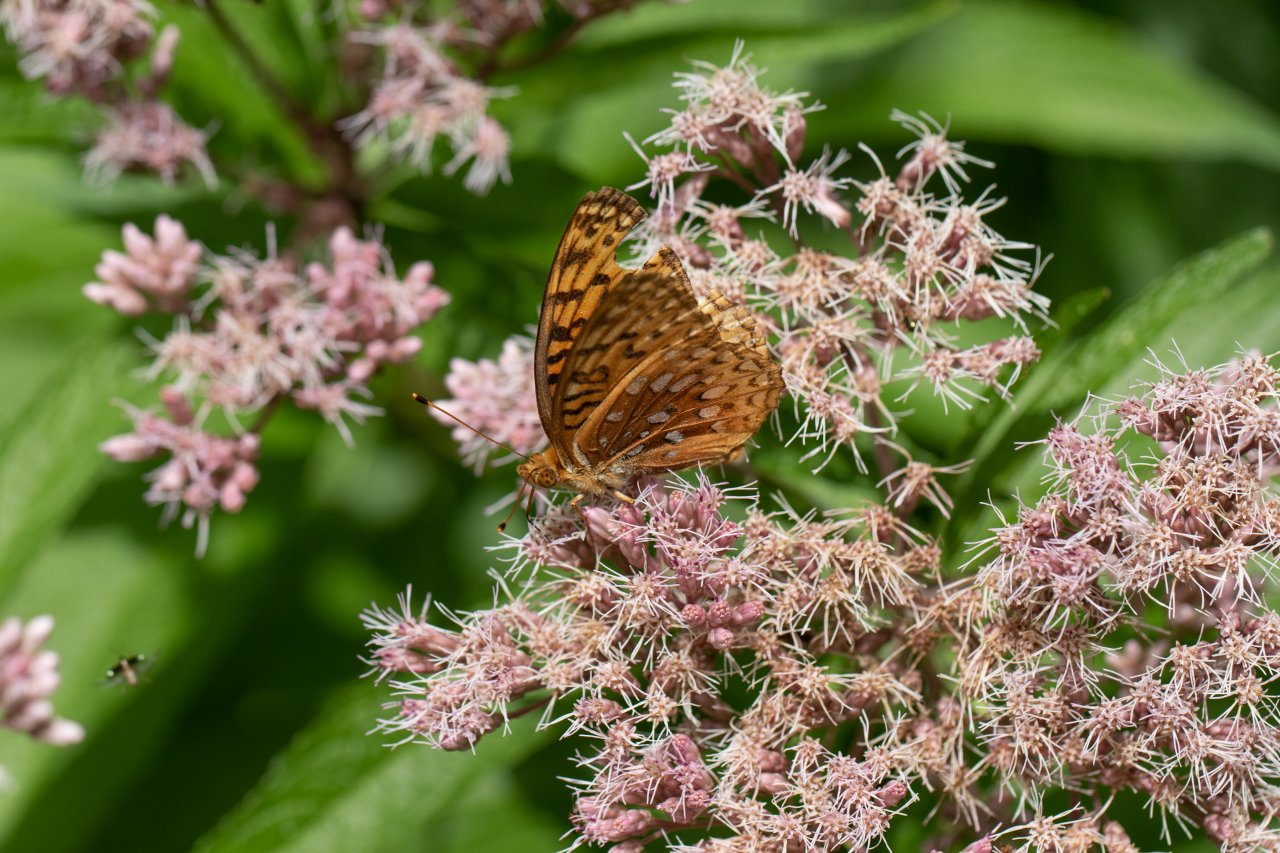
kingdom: Animalia
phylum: Arthropoda
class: Insecta
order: Lepidoptera
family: Nymphalidae
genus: Speyeria
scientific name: Speyeria aphrodite
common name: Aphrodite Fritillary
